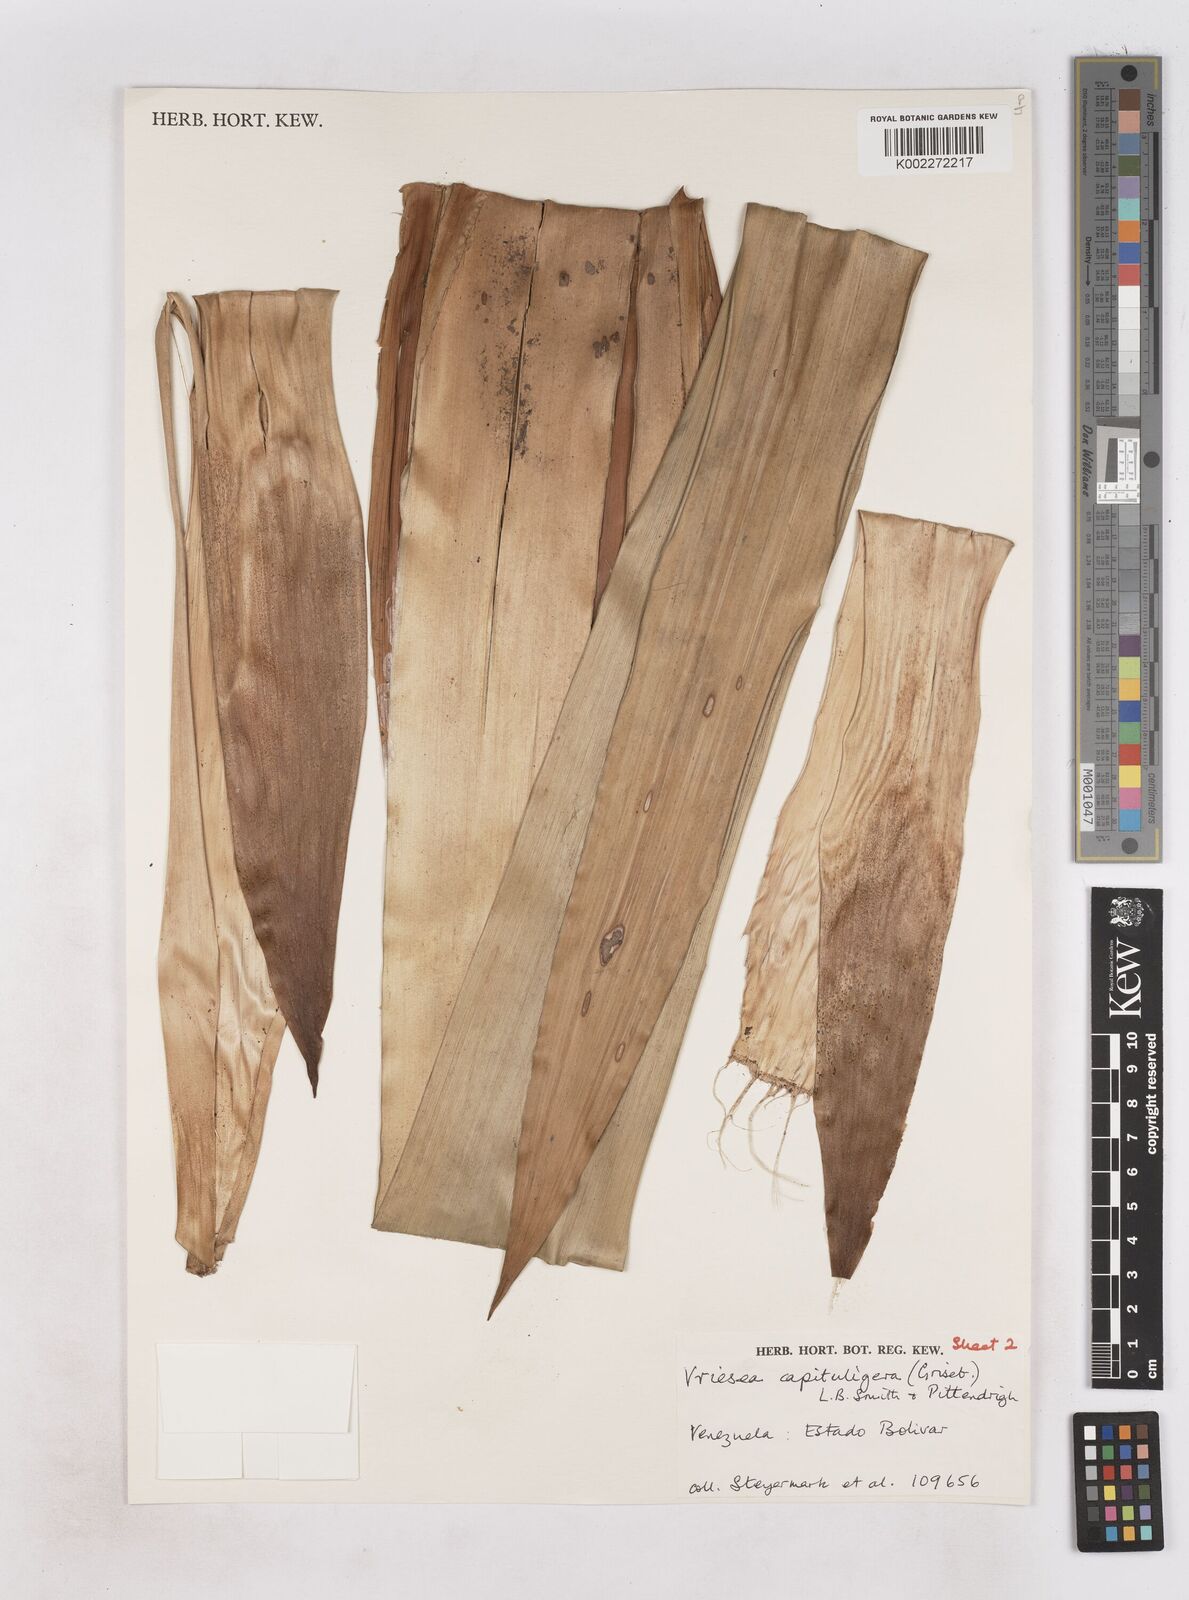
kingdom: Plantae
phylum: Tracheophyta
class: Liliopsida
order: Poales
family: Bromeliaceae
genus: Cipuropsis
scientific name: Cipuropsis capituligera
